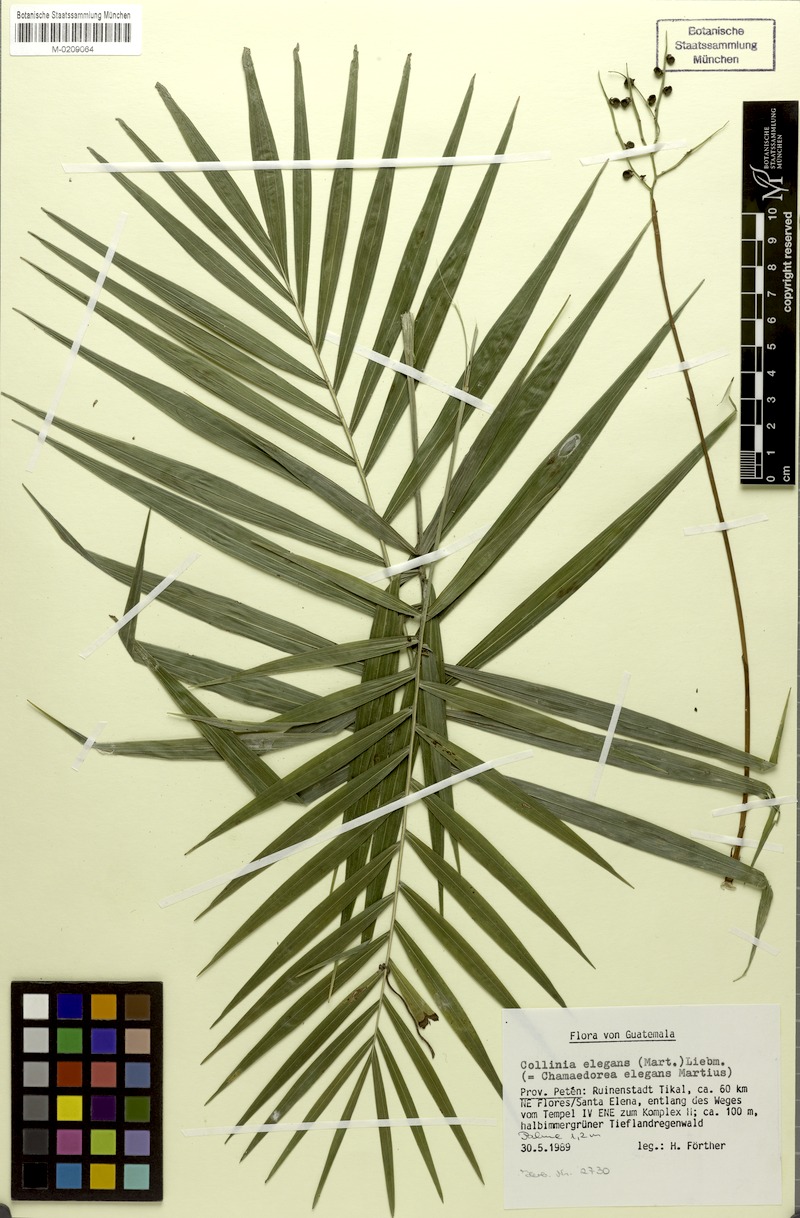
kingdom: Plantae
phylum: Tracheophyta
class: Liliopsida
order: Arecales
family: Arecaceae
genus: Chamaedorea
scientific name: Chamaedorea elegans
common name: Good-luck palm
